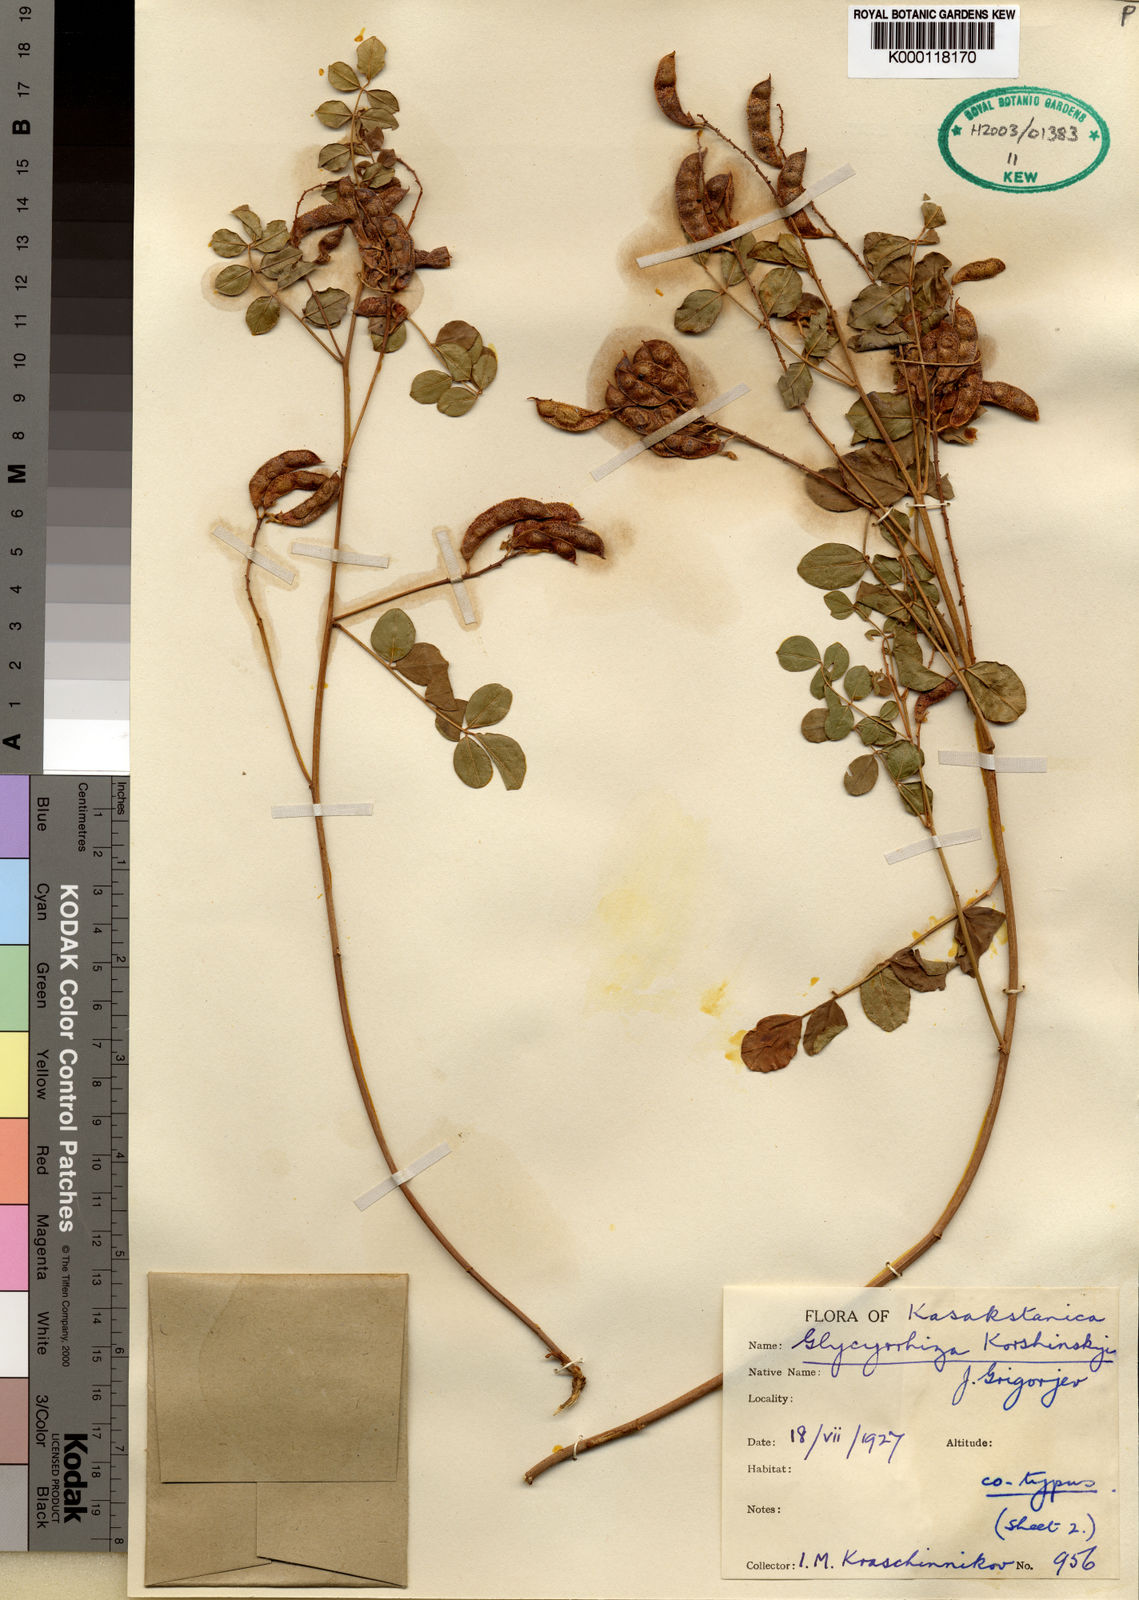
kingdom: Plantae
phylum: Tracheophyta
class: Magnoliopsida
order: Fabales
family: Fabaceae
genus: Glycyrrhiza
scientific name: Glycyrrhiza glabra
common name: Liquorice
